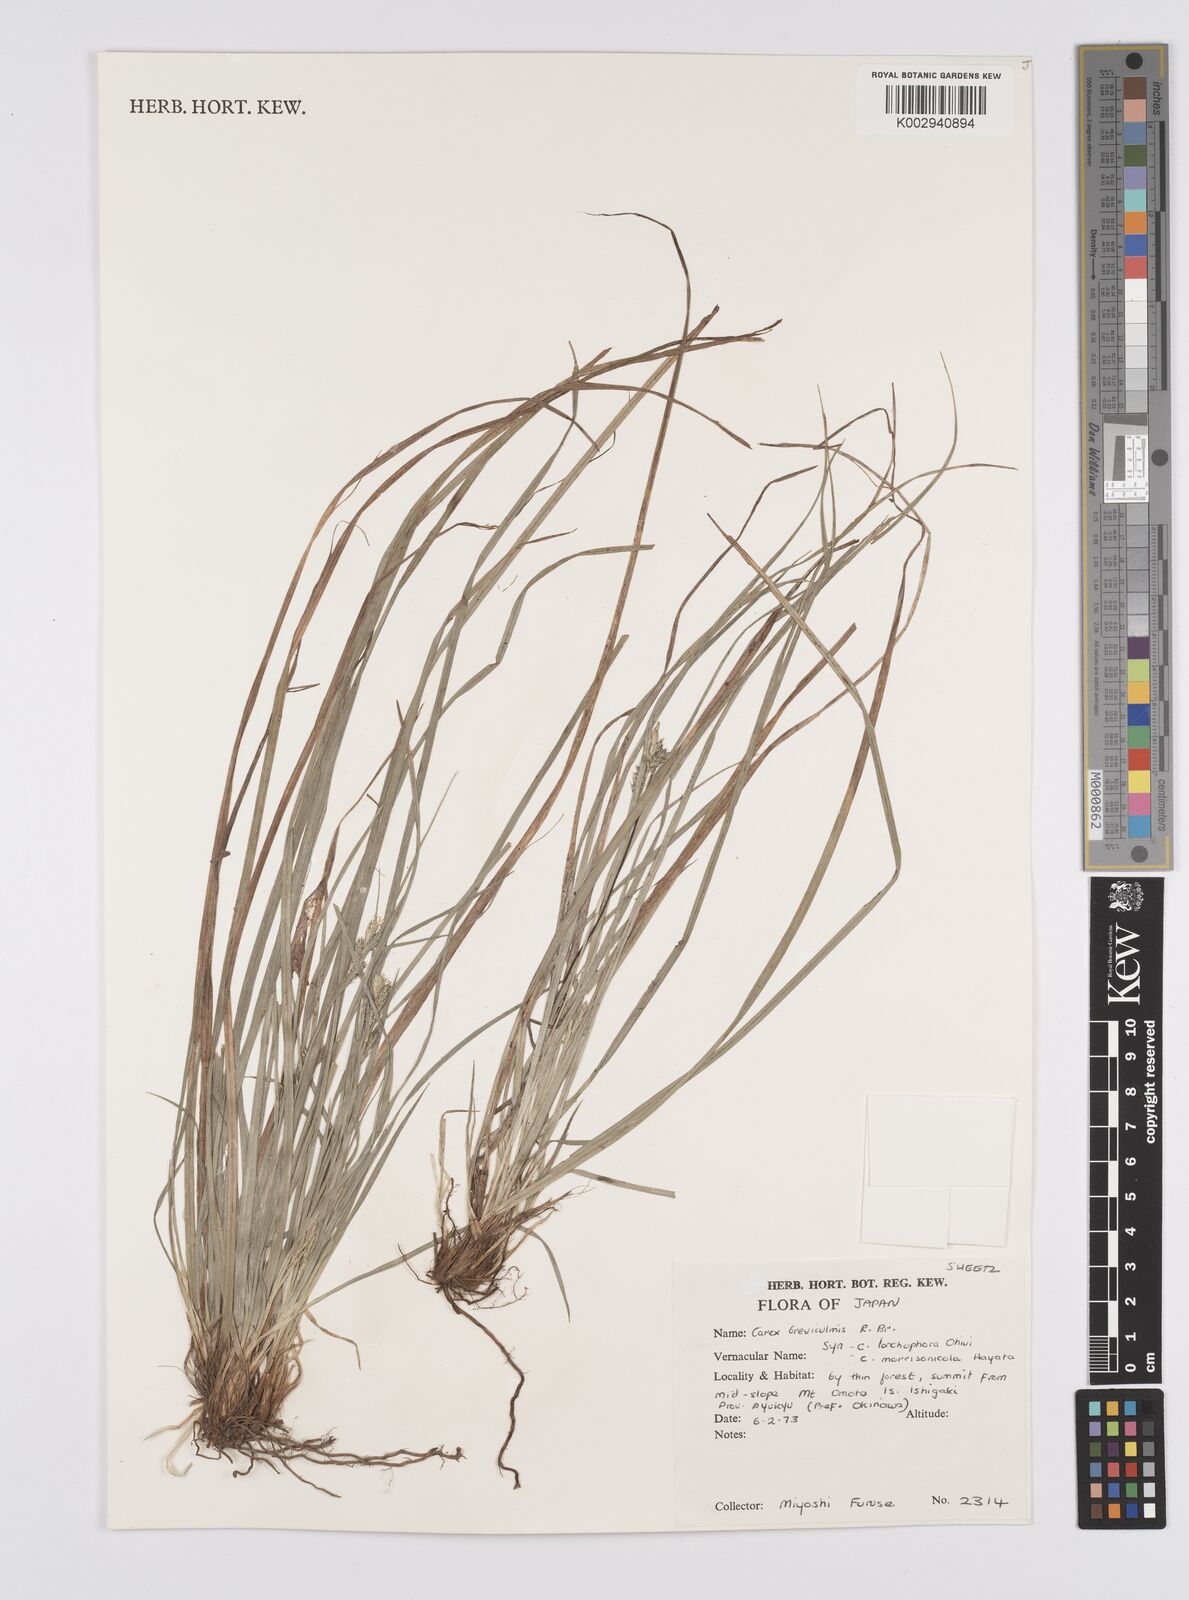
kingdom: Plantae
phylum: Tracheophyta
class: Liliopsida
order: Poales
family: Cyperaceae
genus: Carex
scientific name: Carex breviculmis
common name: Asian shortstem sedge
